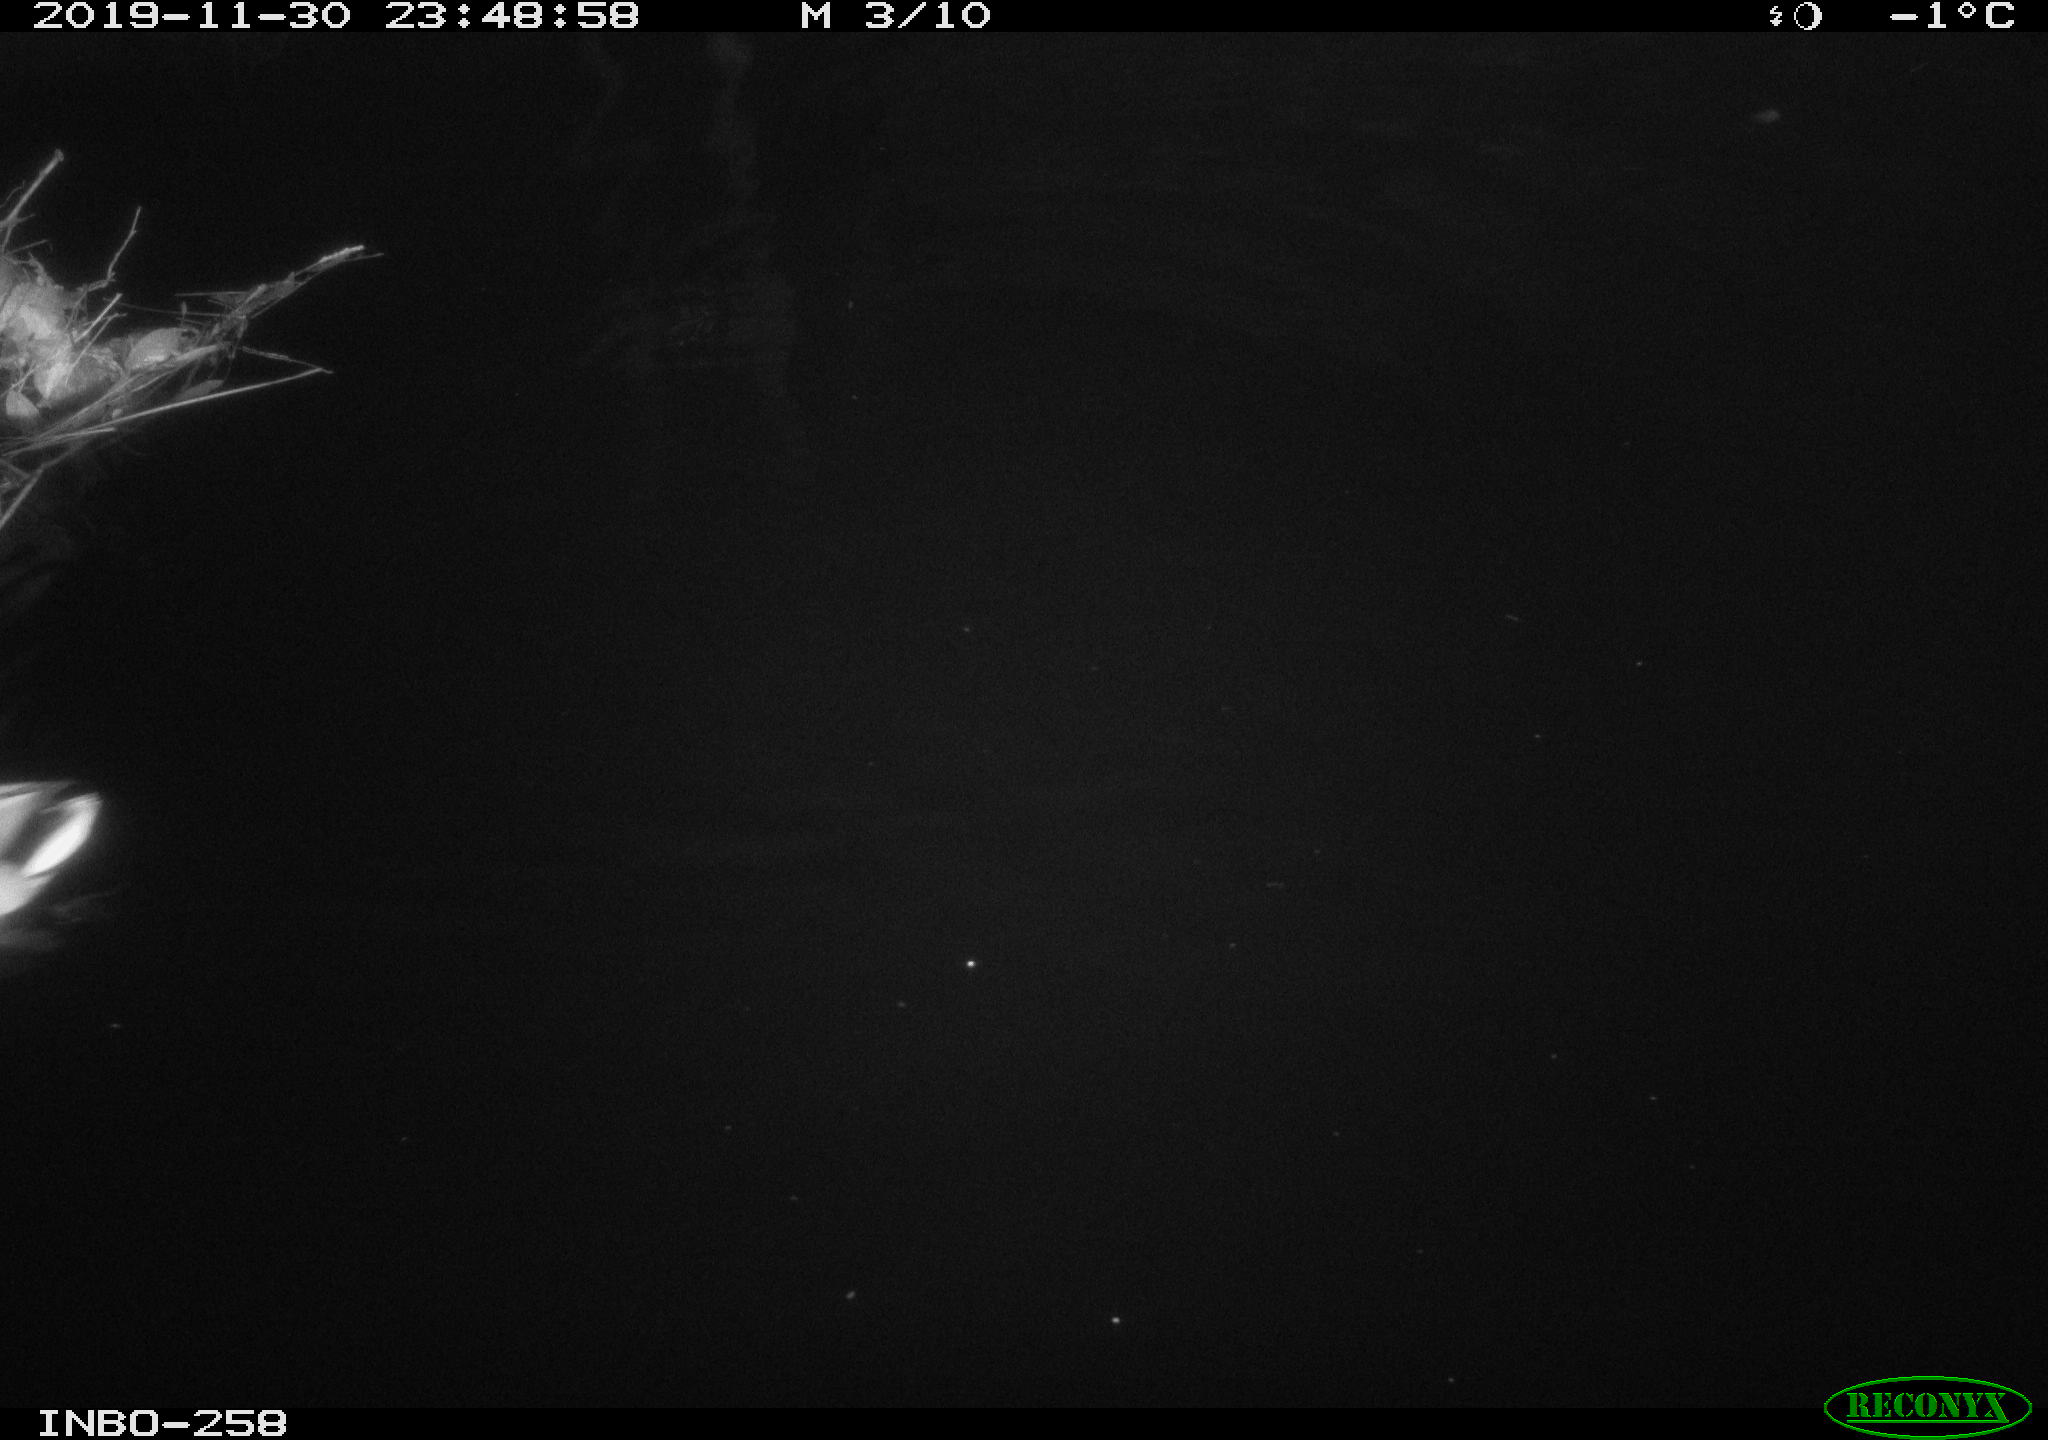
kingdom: Animalia
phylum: Chordata
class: Aves
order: Anseriformes
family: Anatidae
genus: Anas
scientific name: Anas platyrhynchos
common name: Mallard
